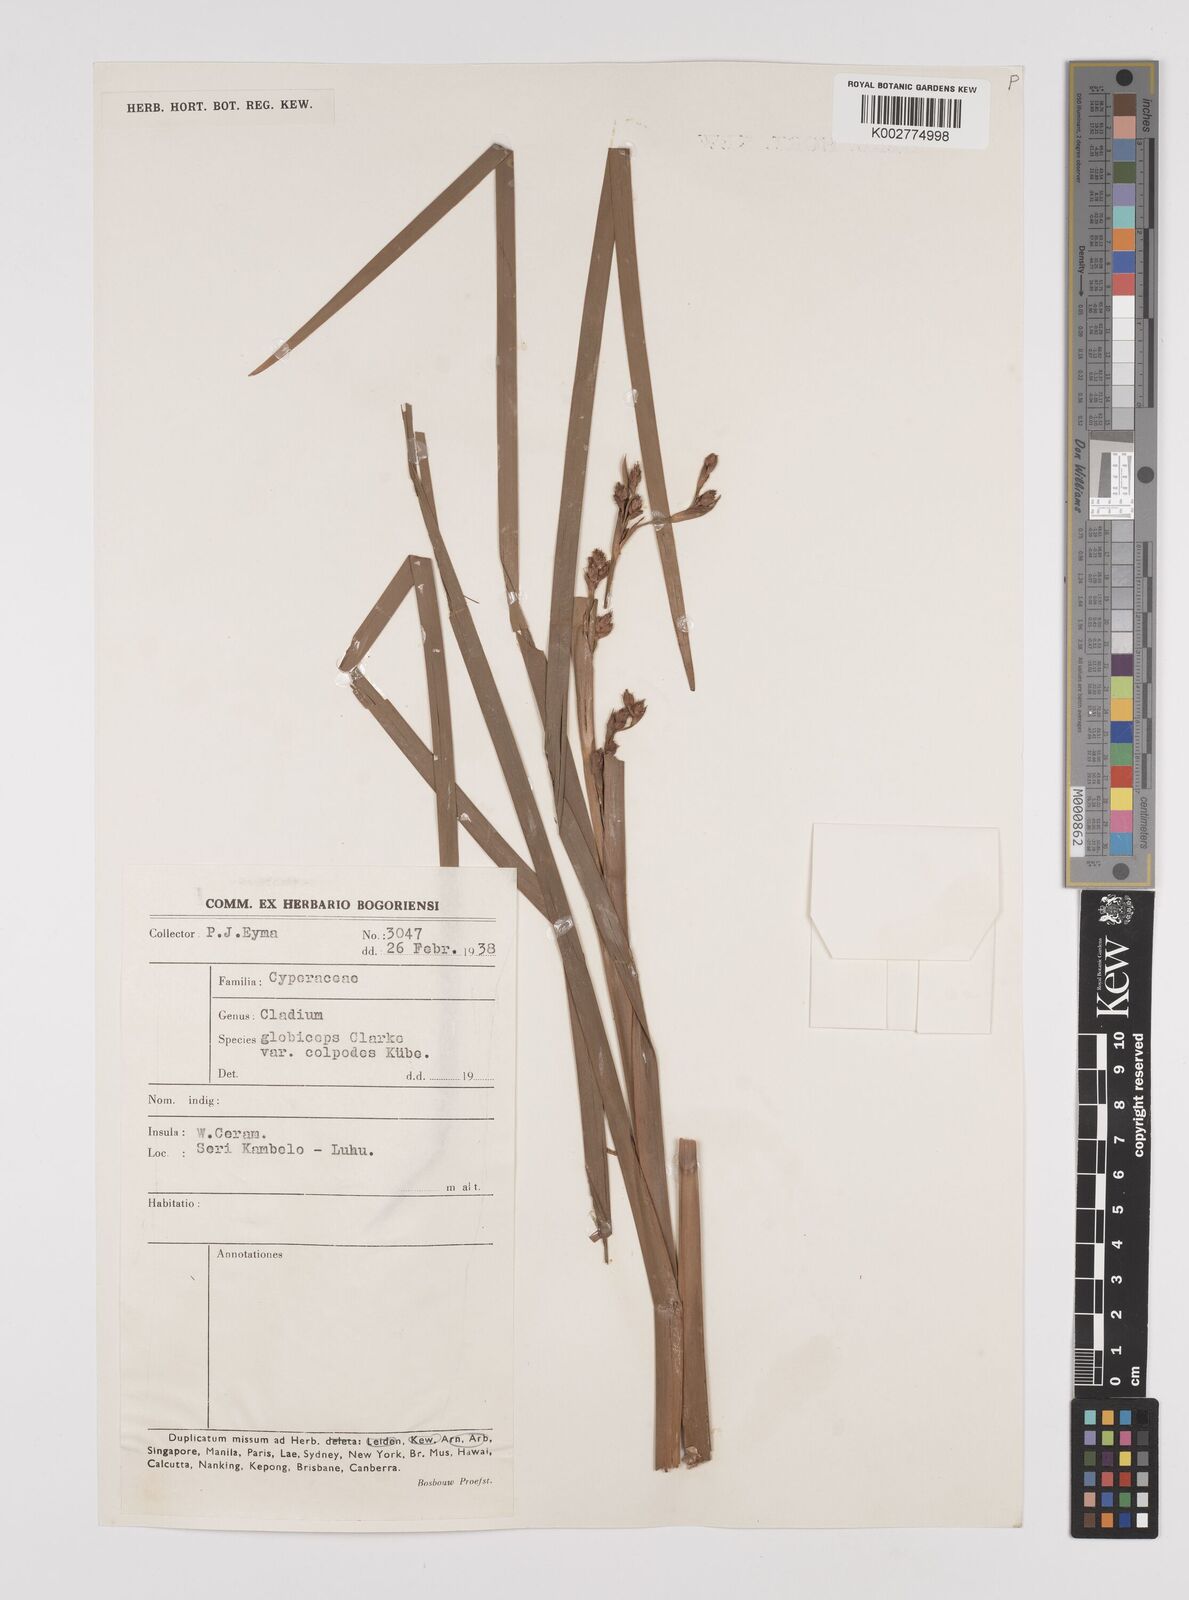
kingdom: Plantae
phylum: Tracheophyta
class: Liliopsida
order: Poales
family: Cyperaceae
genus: Machaerina
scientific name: Machaerina glomerata
